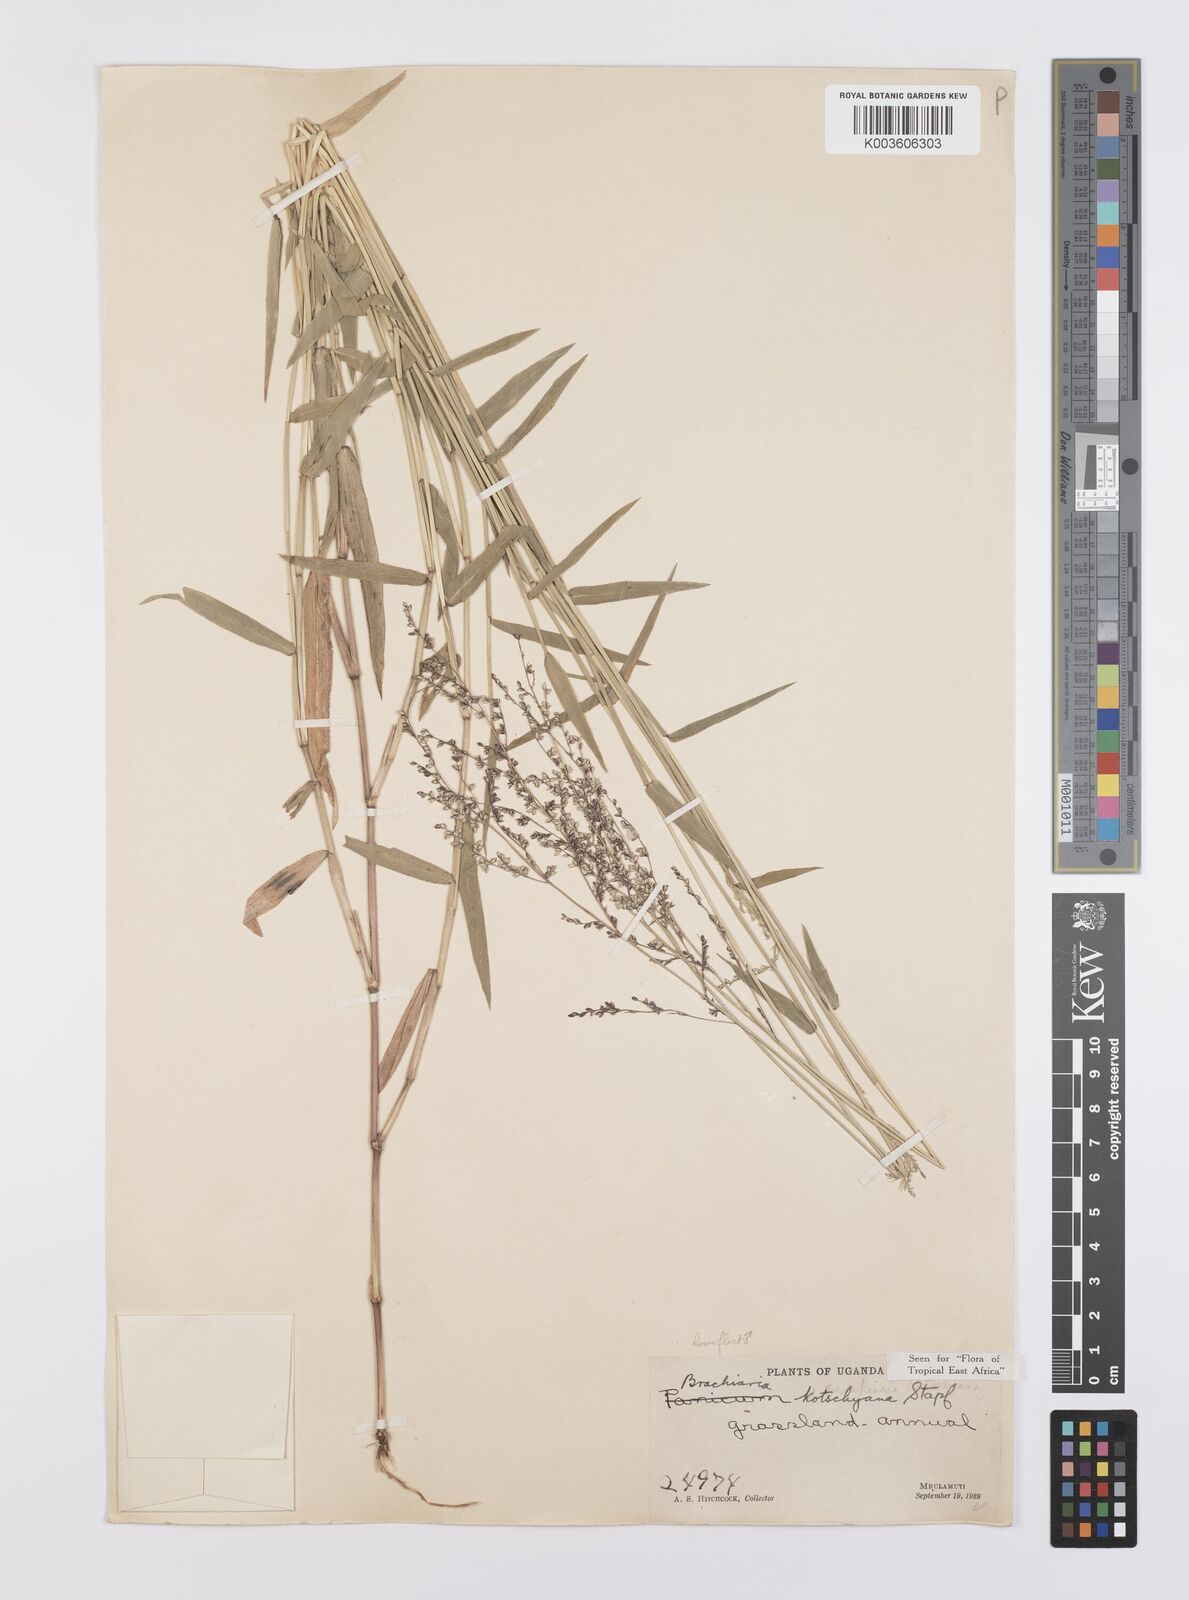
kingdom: Plantae
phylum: Tracheophyta
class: Liliopsida
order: Poales
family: Poaceae
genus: Urochloa
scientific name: Urochloa comata
